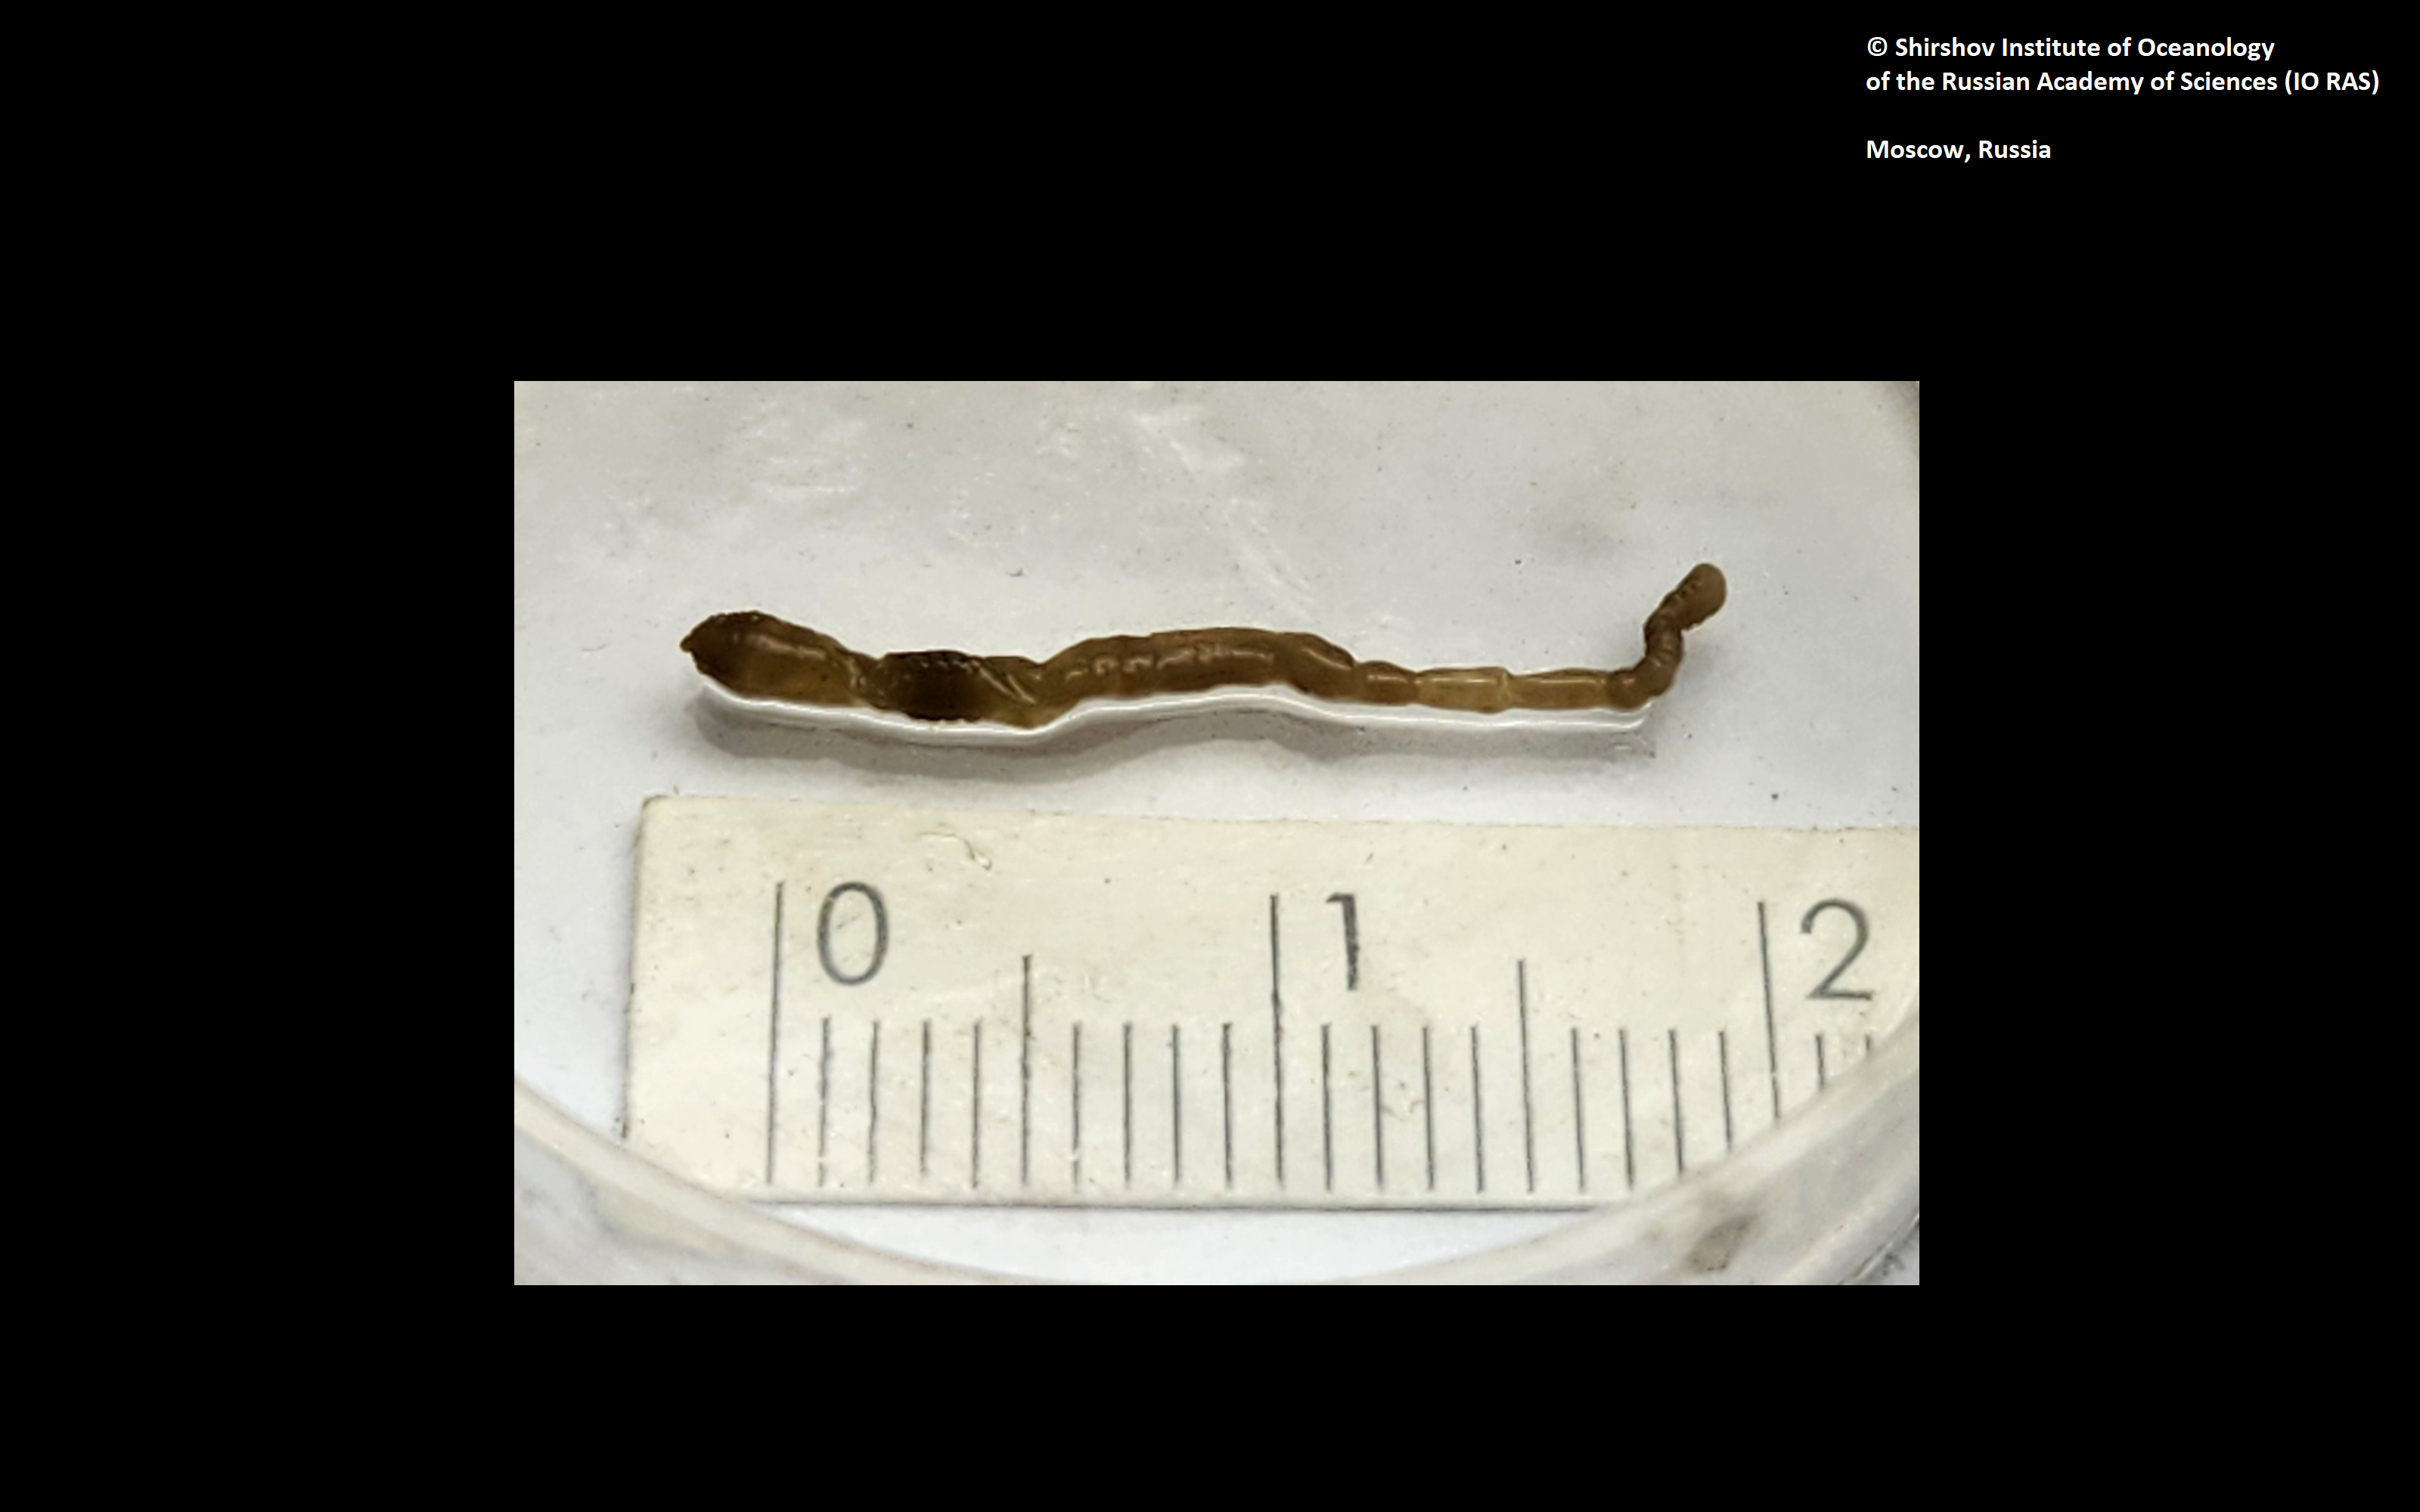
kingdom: Animalia
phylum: Annelida
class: Polychaeta
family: Fauveliopsidae
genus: Fauveliopsis
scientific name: Fauveliopsis levensteinae
